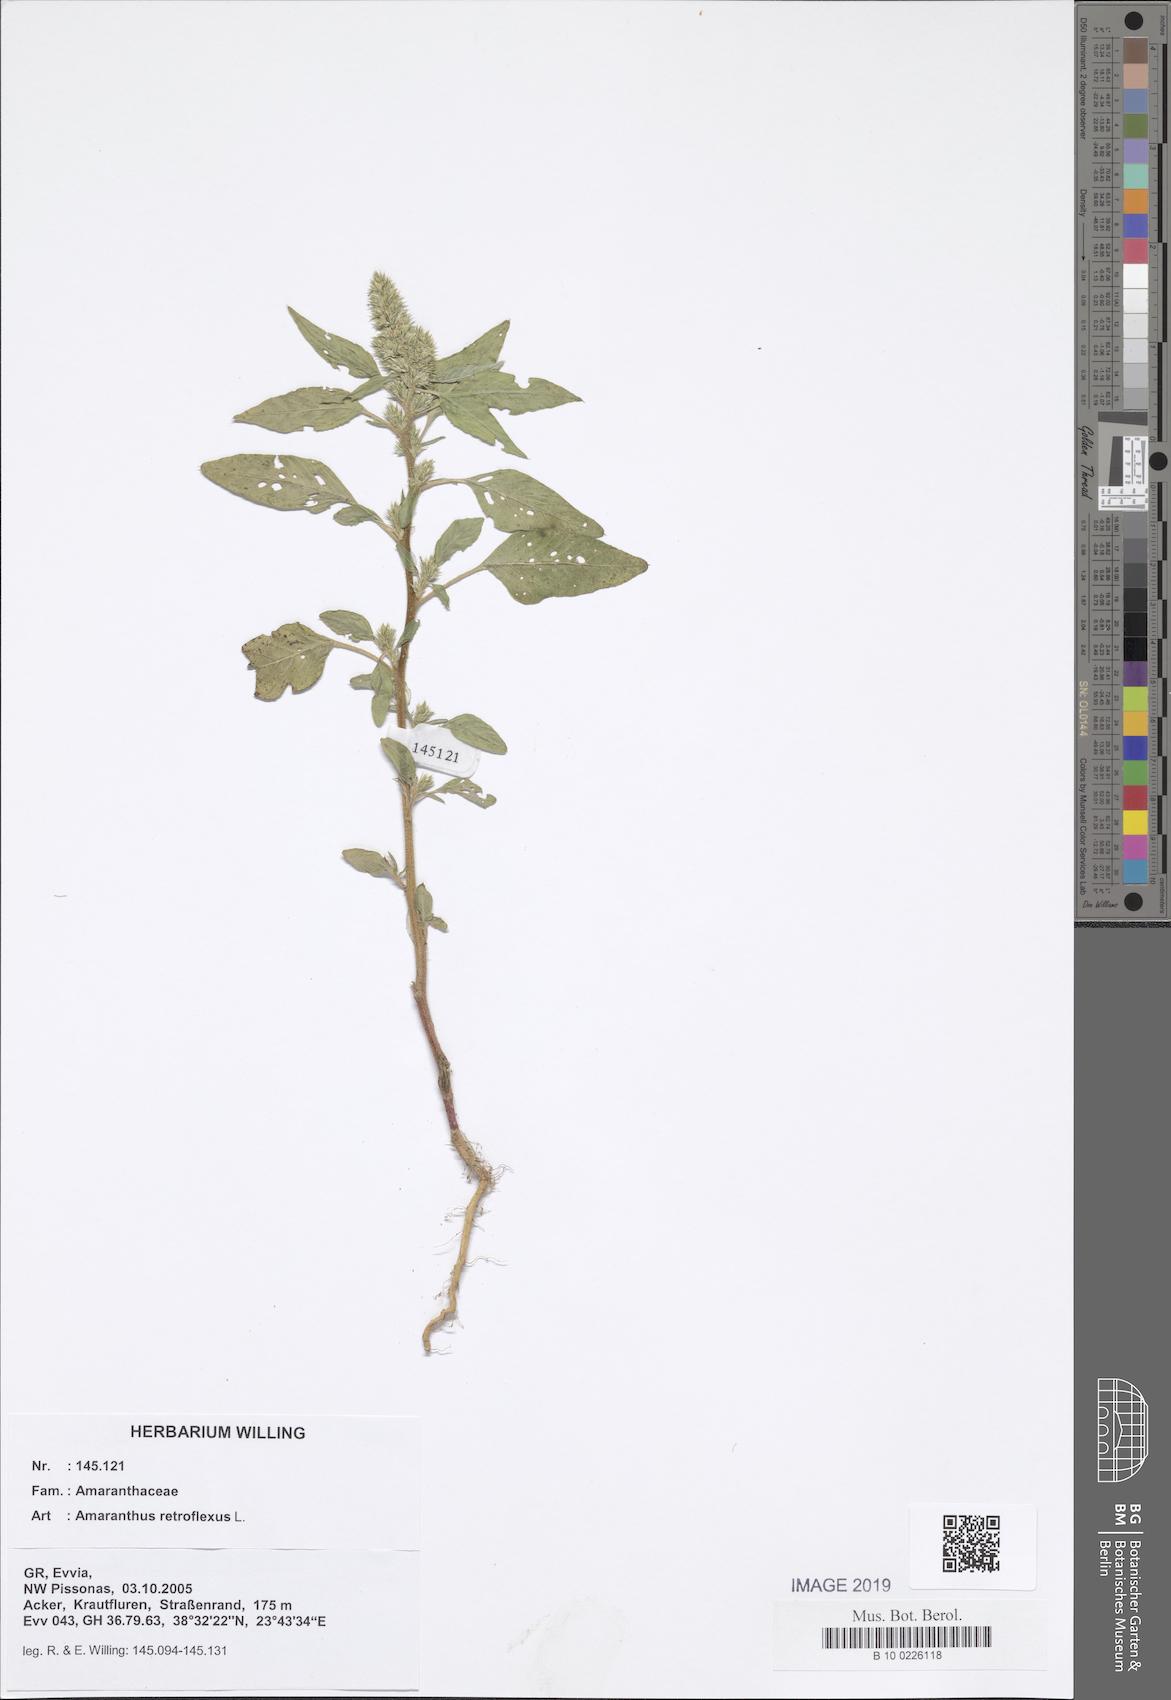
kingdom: Plantae
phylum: Tracheophyta
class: Magnoliopsida
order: Caryophyllales
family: Amaranthaceae
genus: Amaranthus
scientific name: Amaranthus retroflexus
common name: Redroot amaranth
